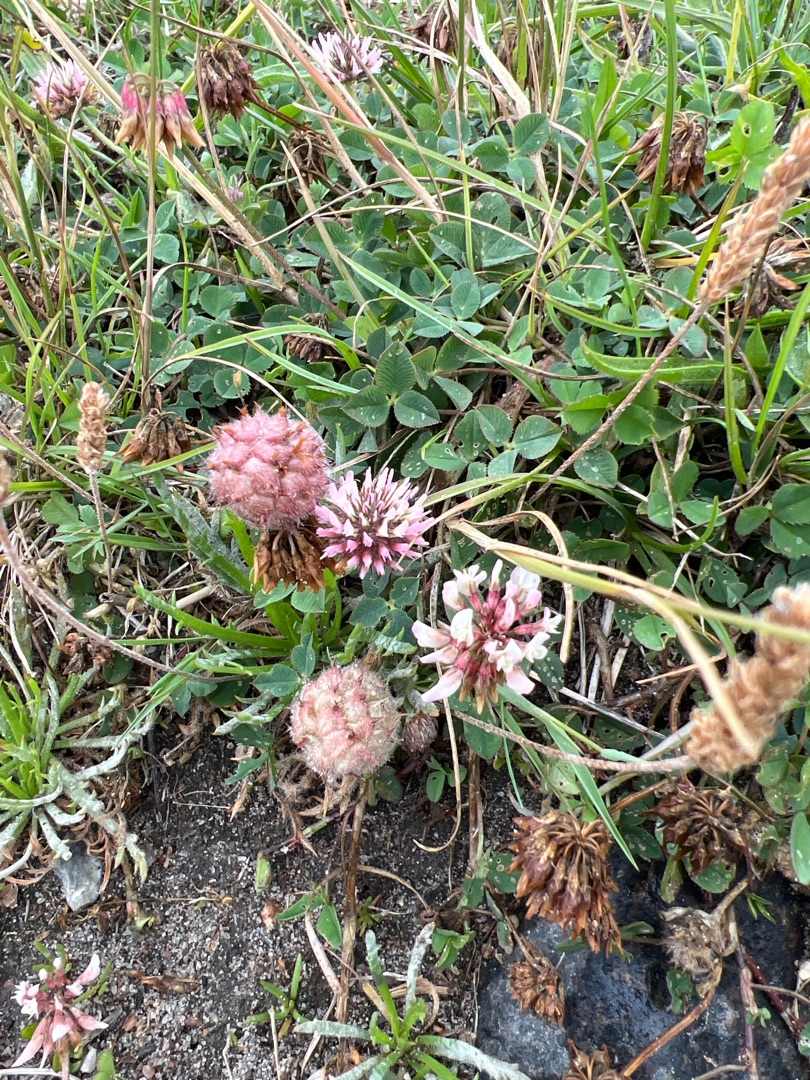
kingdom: Plantae
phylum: Tracheophyta
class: Magnoliopsida
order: Fabales
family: Fabaceae
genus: Trifolium
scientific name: Trifolium fragiferum
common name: Jordbær-kløver
